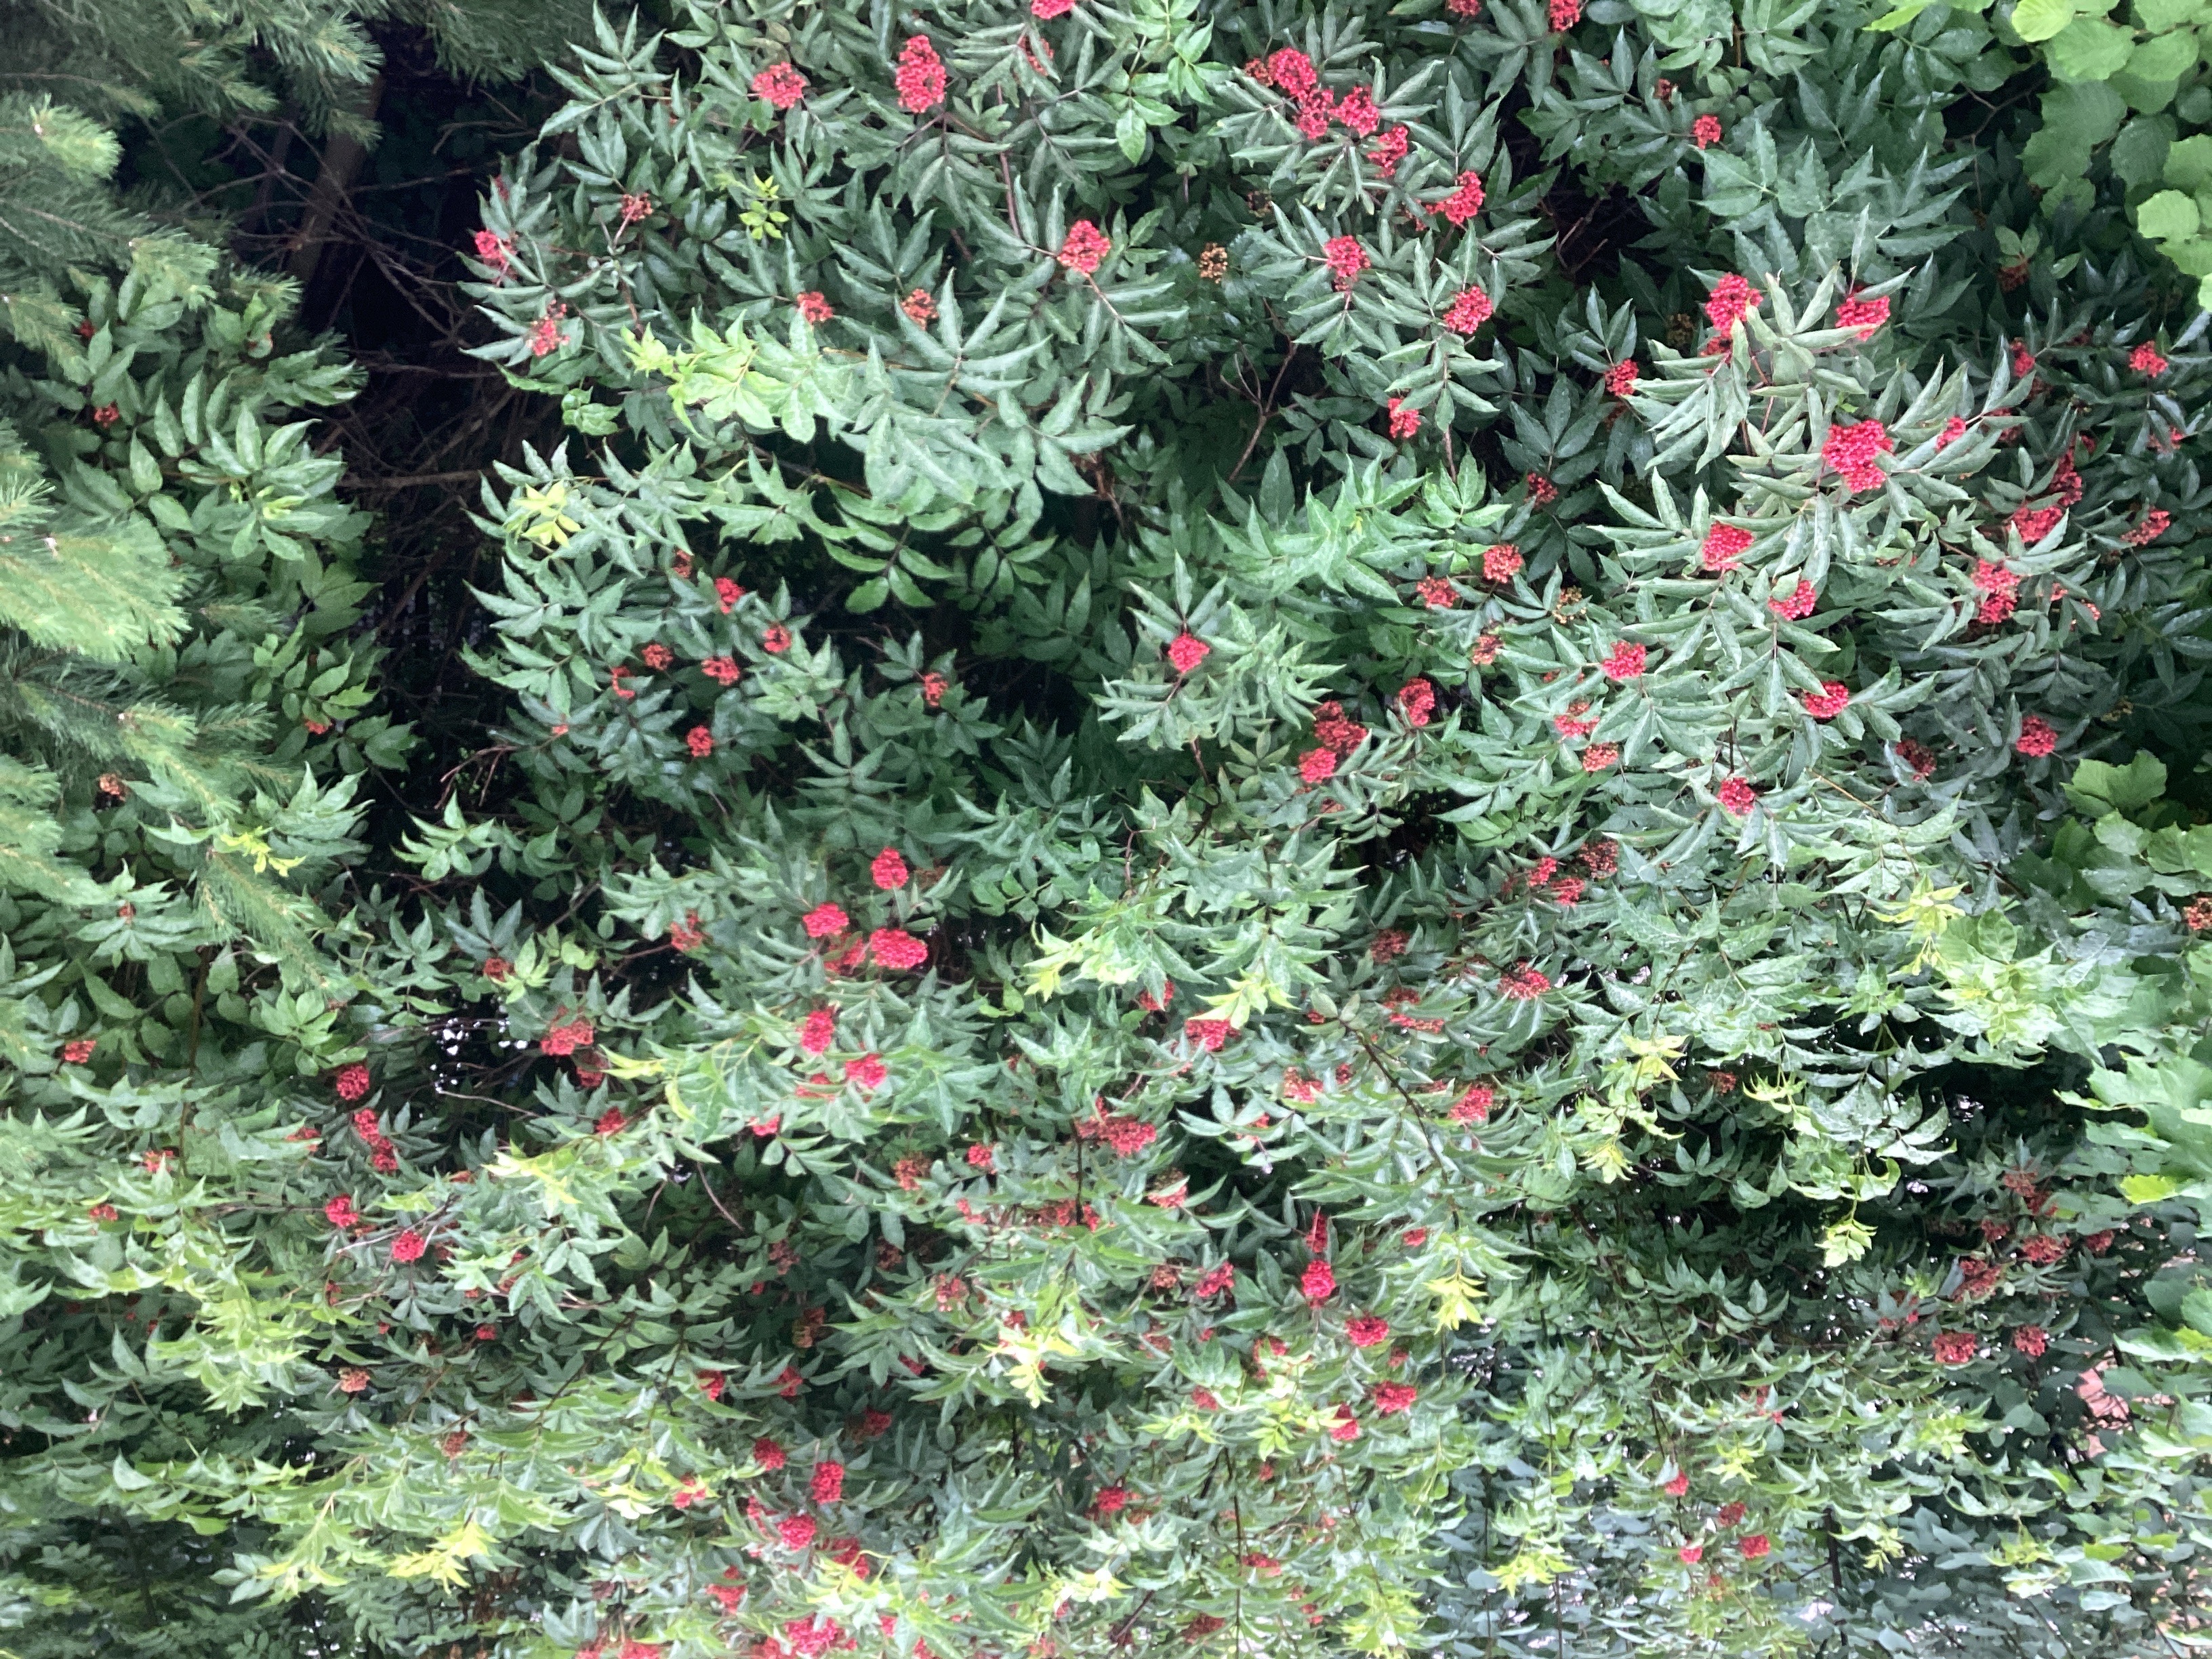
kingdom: Plantae
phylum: Tracheophyta
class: Magnoliopsida
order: Dipsacales
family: Viburnaceae
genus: Sambucus
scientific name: Sambucus racemosa
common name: rødhyll
